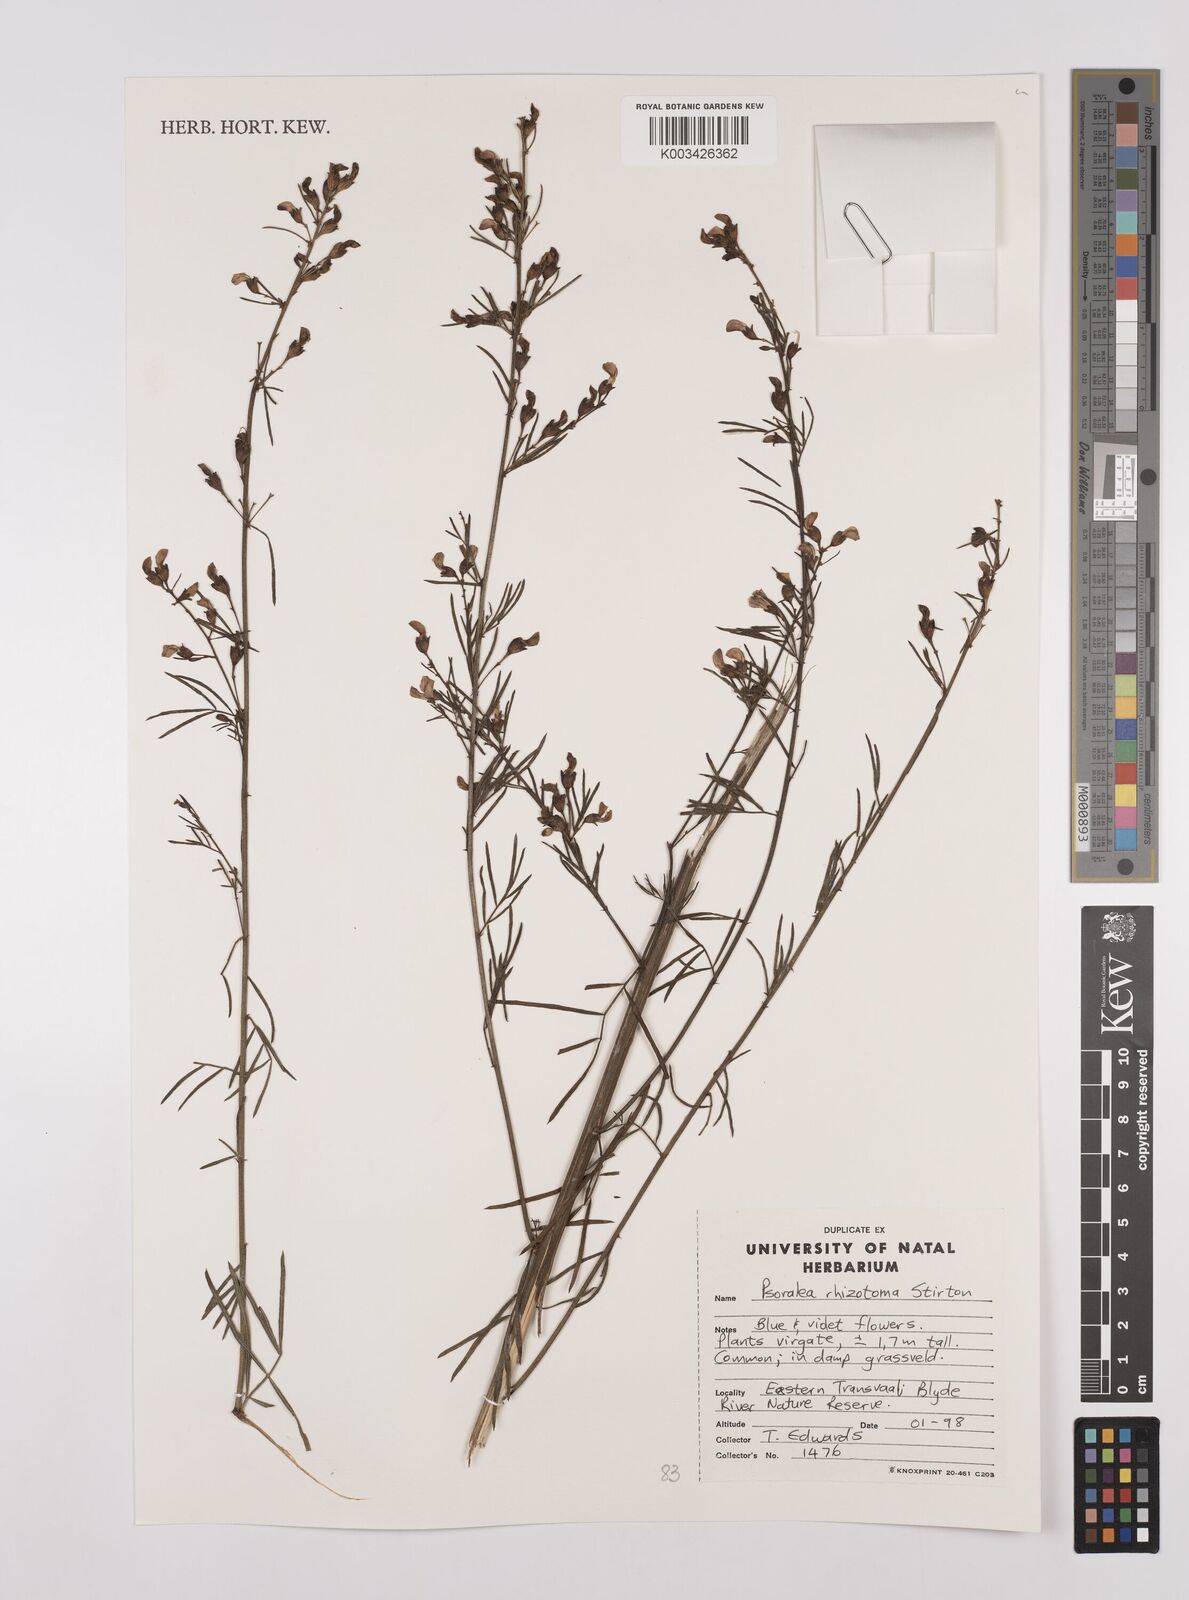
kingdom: Plantae
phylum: Tracheophyta
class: Magnoliopsida
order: Fabales
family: Fabaceae
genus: Psoralea
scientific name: Psoralea rhizotoma
